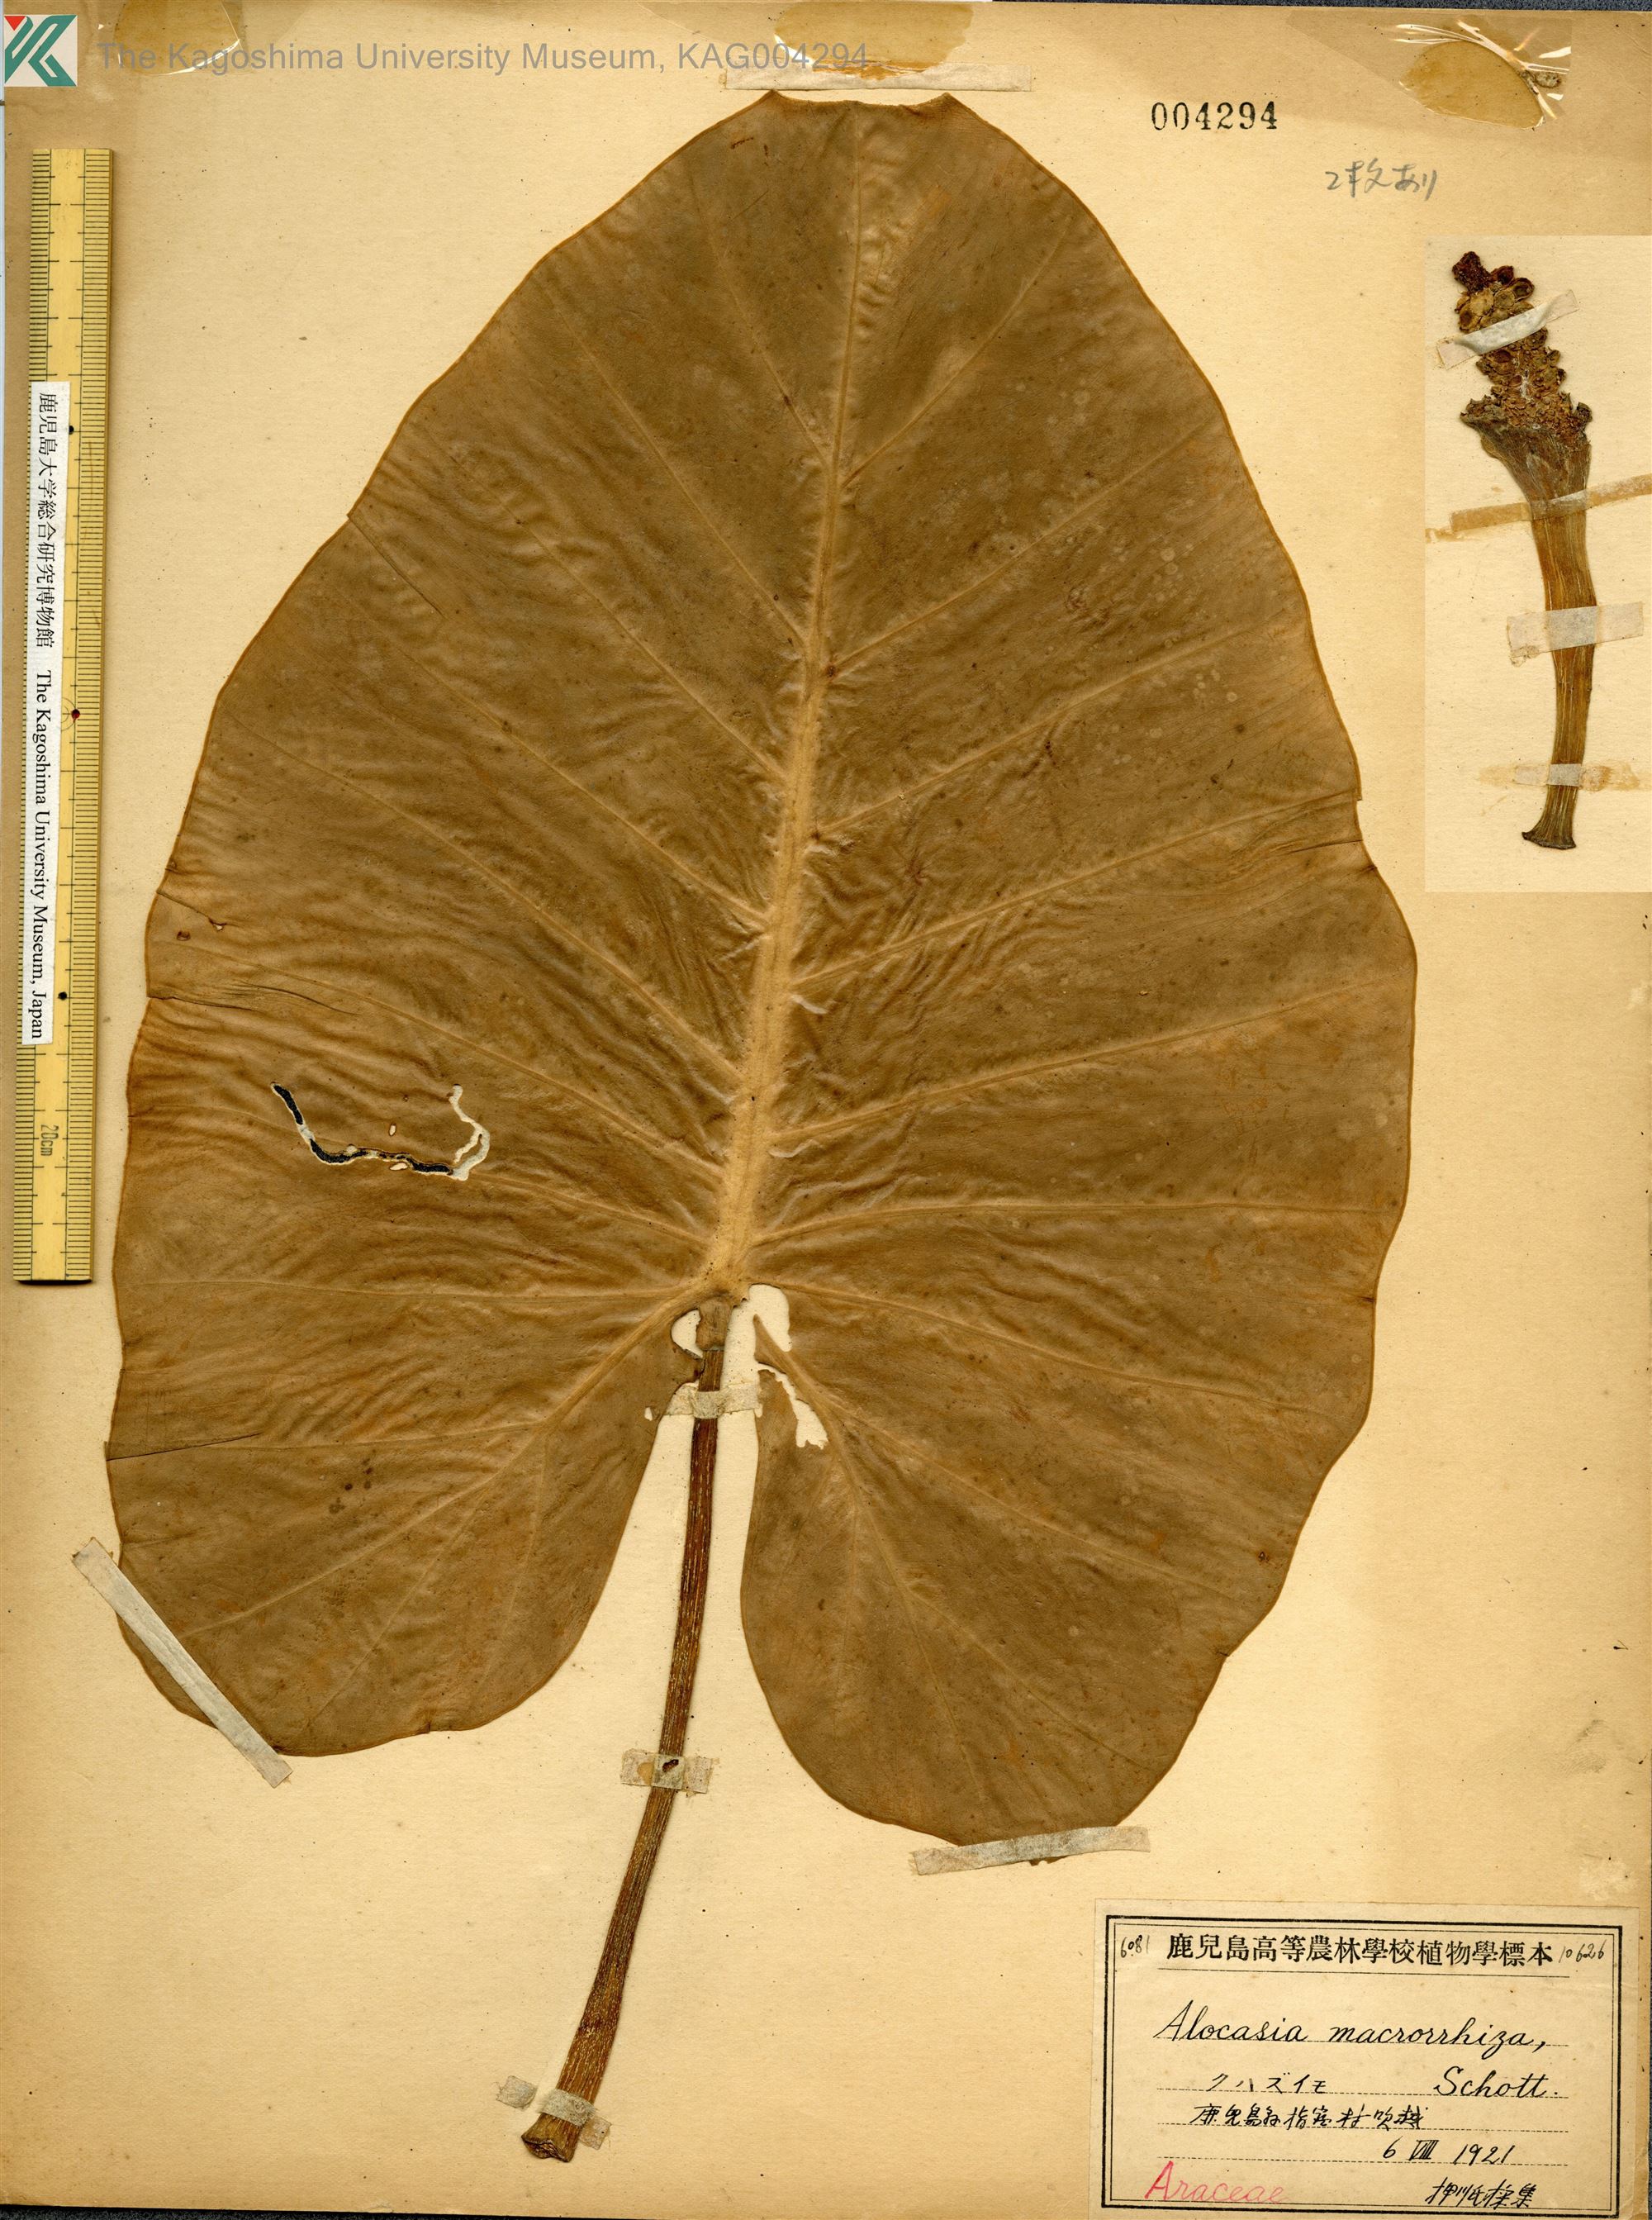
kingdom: Plantae
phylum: Tracheophyta
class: Liliopsida
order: Alismatales
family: Araceae
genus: Alocasia
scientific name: Alocasia odora
